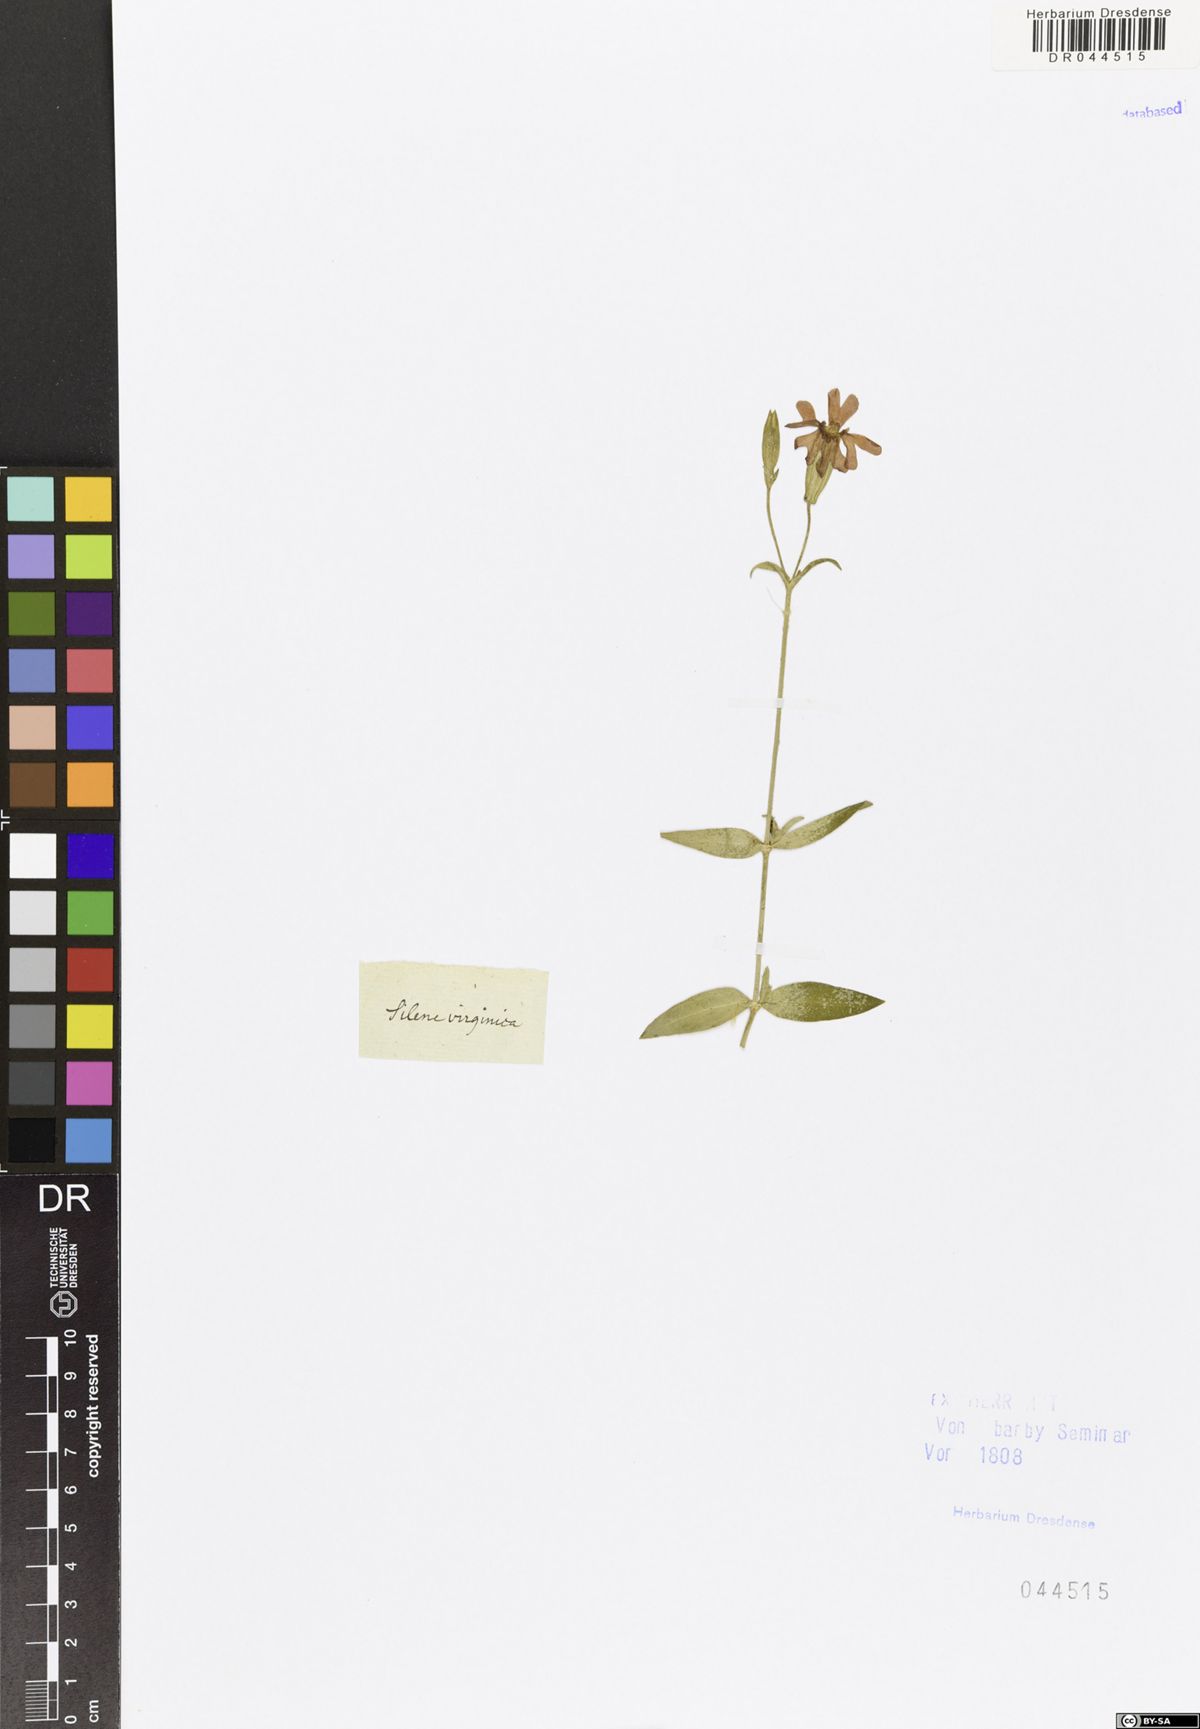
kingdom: Plantae
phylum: Tracheophyta
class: Magnoliopsida
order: Caryophyllales
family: Caryophyllaceae
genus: Silene
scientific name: Silene virginica
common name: Fire-pink
